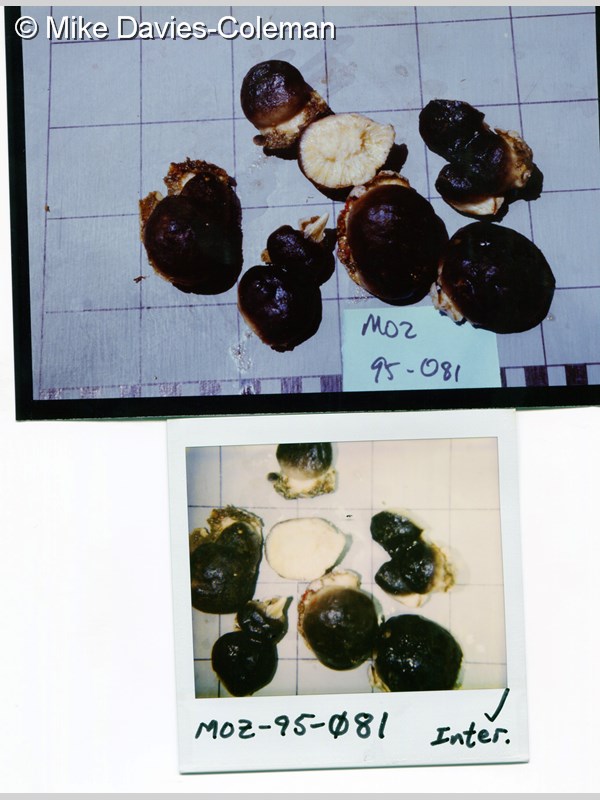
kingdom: Animalia
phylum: Porifera
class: Demospongiae
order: Suberitida
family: Suberitidae
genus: Aaptos
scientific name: Aaptos
